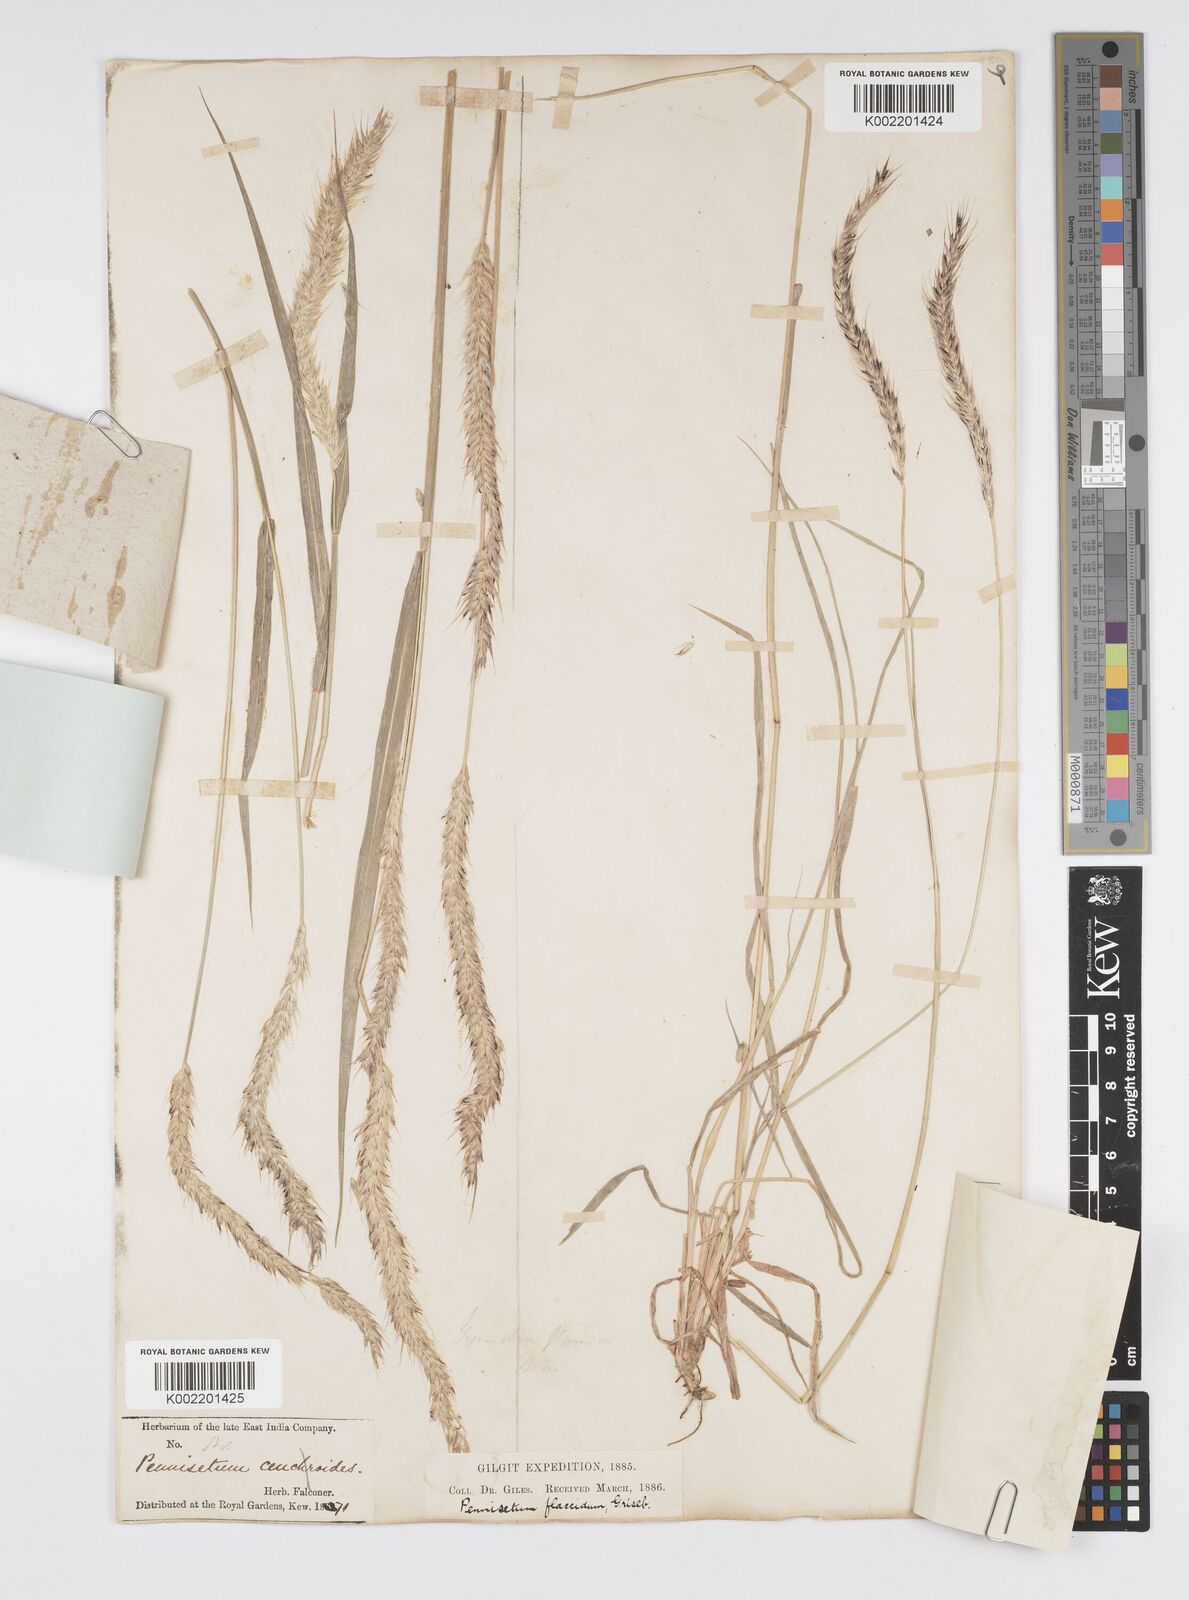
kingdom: Plantae
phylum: Tracheophyta
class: Liliopsida
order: Poales
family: Poaceae
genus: Cenchrus
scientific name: Cenchrus flaccidus
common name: Flaccid grass
